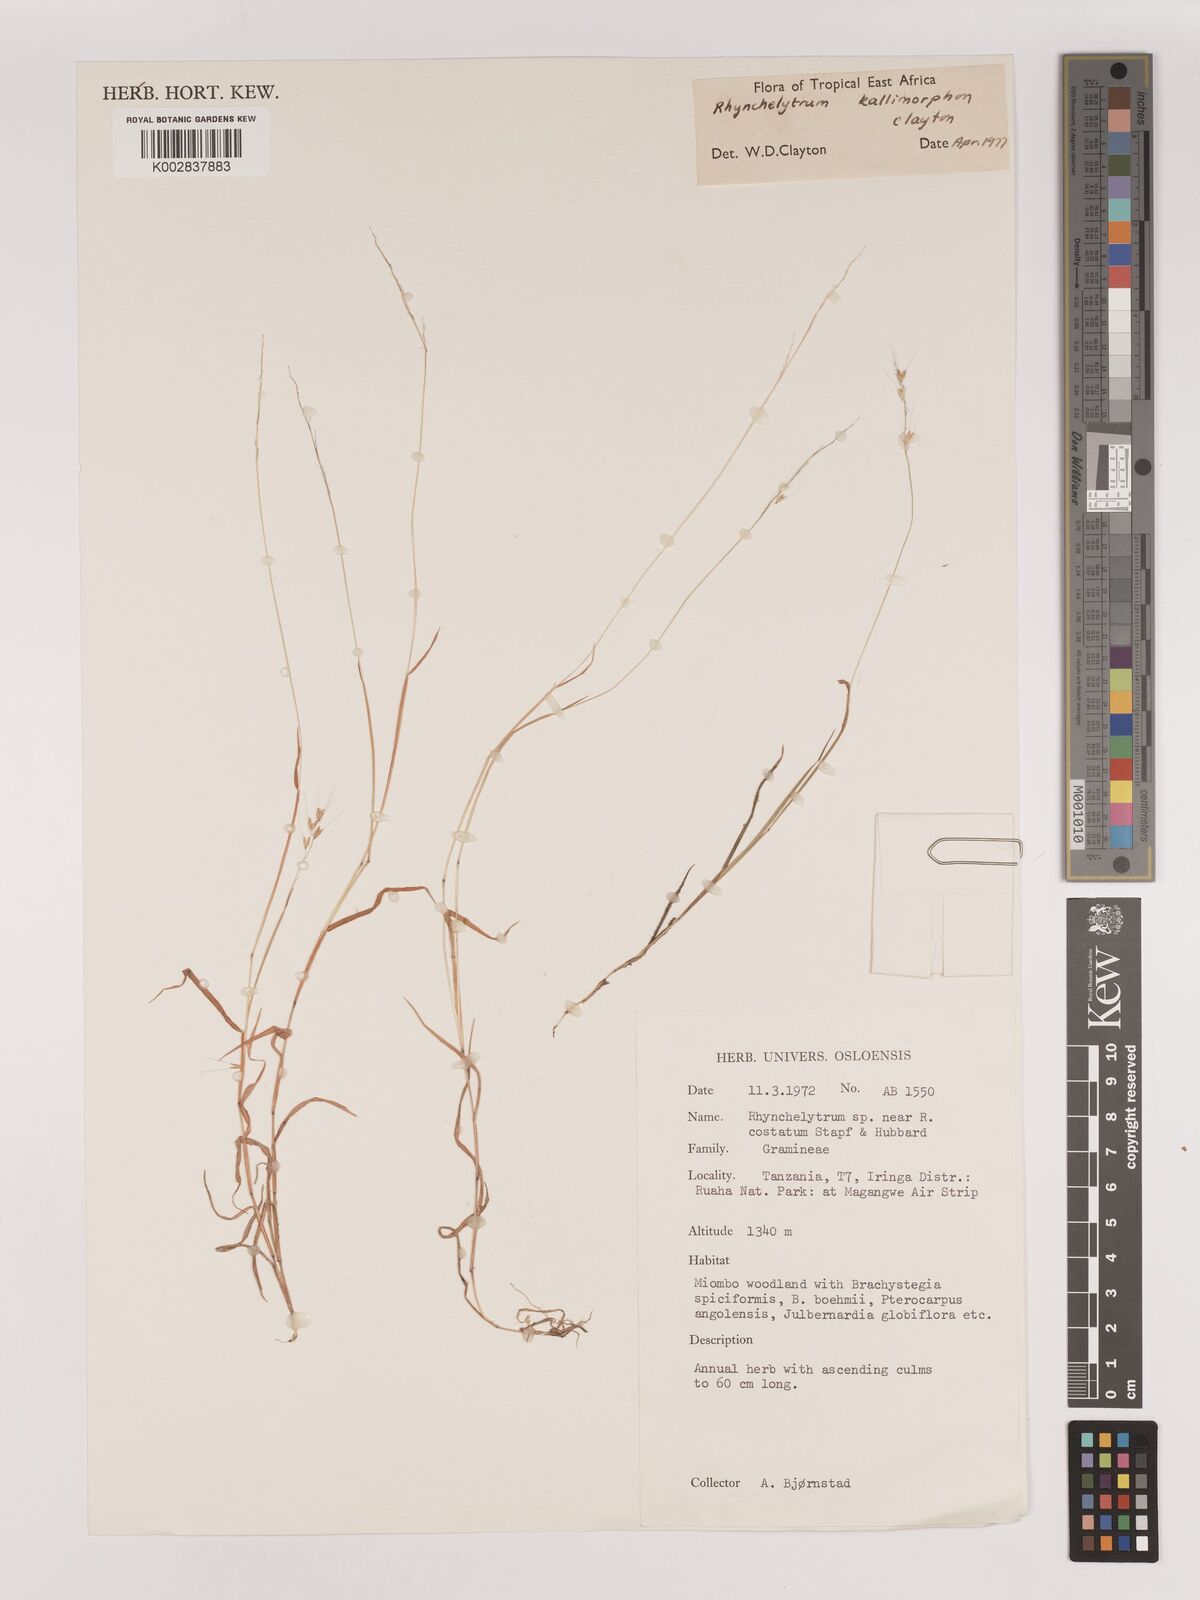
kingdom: Plantae
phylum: Tracheophyta
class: Liliopsida
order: Poales
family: Poaceae
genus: Melinis
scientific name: Melinis kallimorpha
